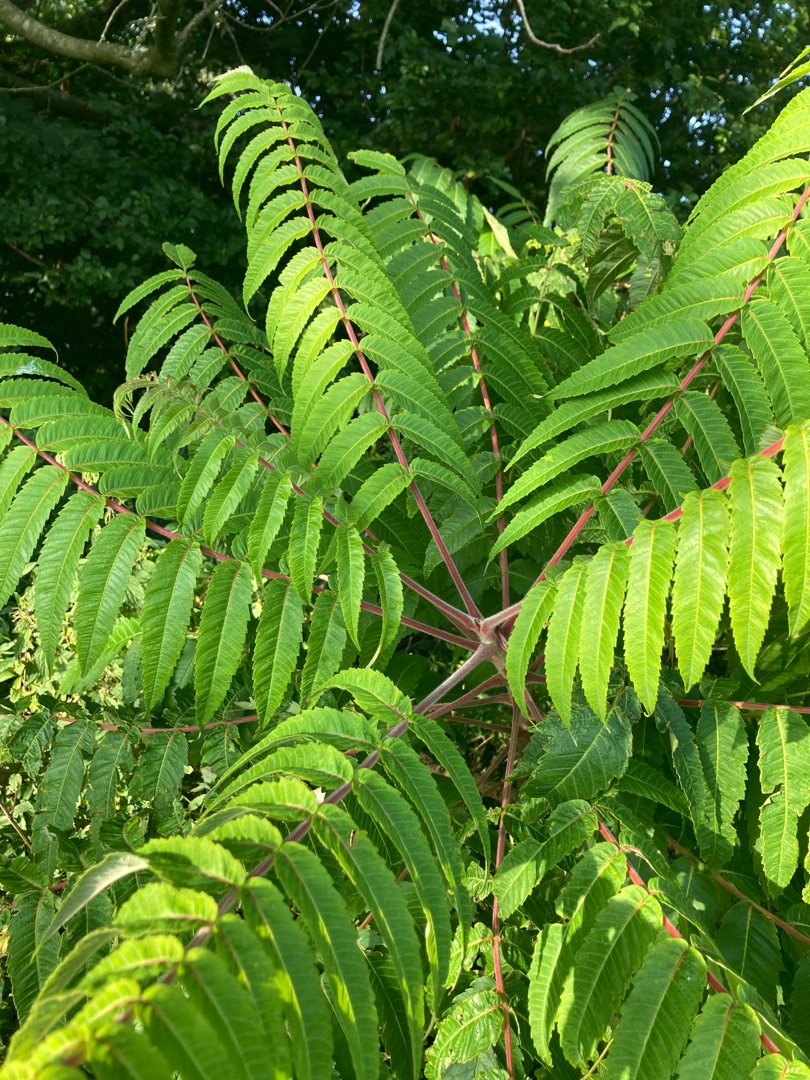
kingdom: Plantae
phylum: Tracheophyta
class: Magnoliopsida
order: Sapindales
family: Anacardiaceae
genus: Rhus
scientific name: Rhus typhina
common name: Hjortetaktræ
